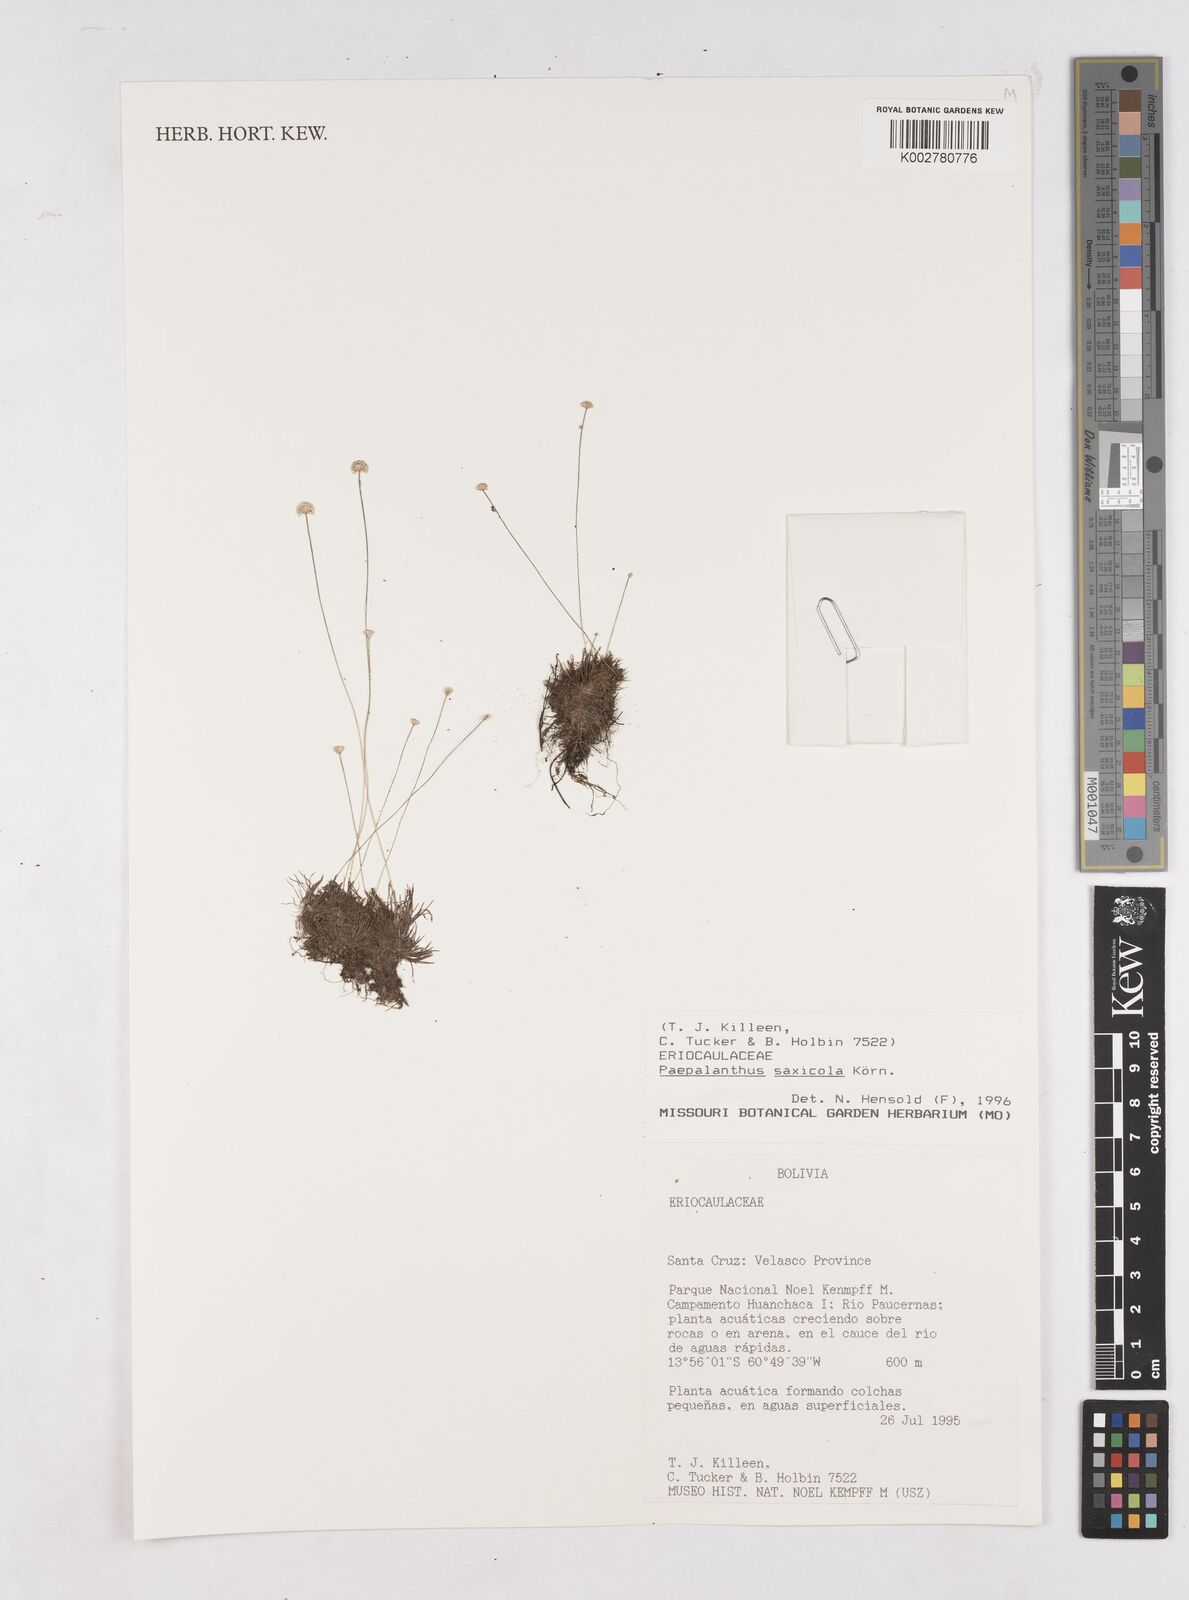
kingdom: Plantae
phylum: Tracheophyta
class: Liliopsida
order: Poales
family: Eriocaulaceae
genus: Syngonanthus
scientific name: Syngonanthus saxicola
